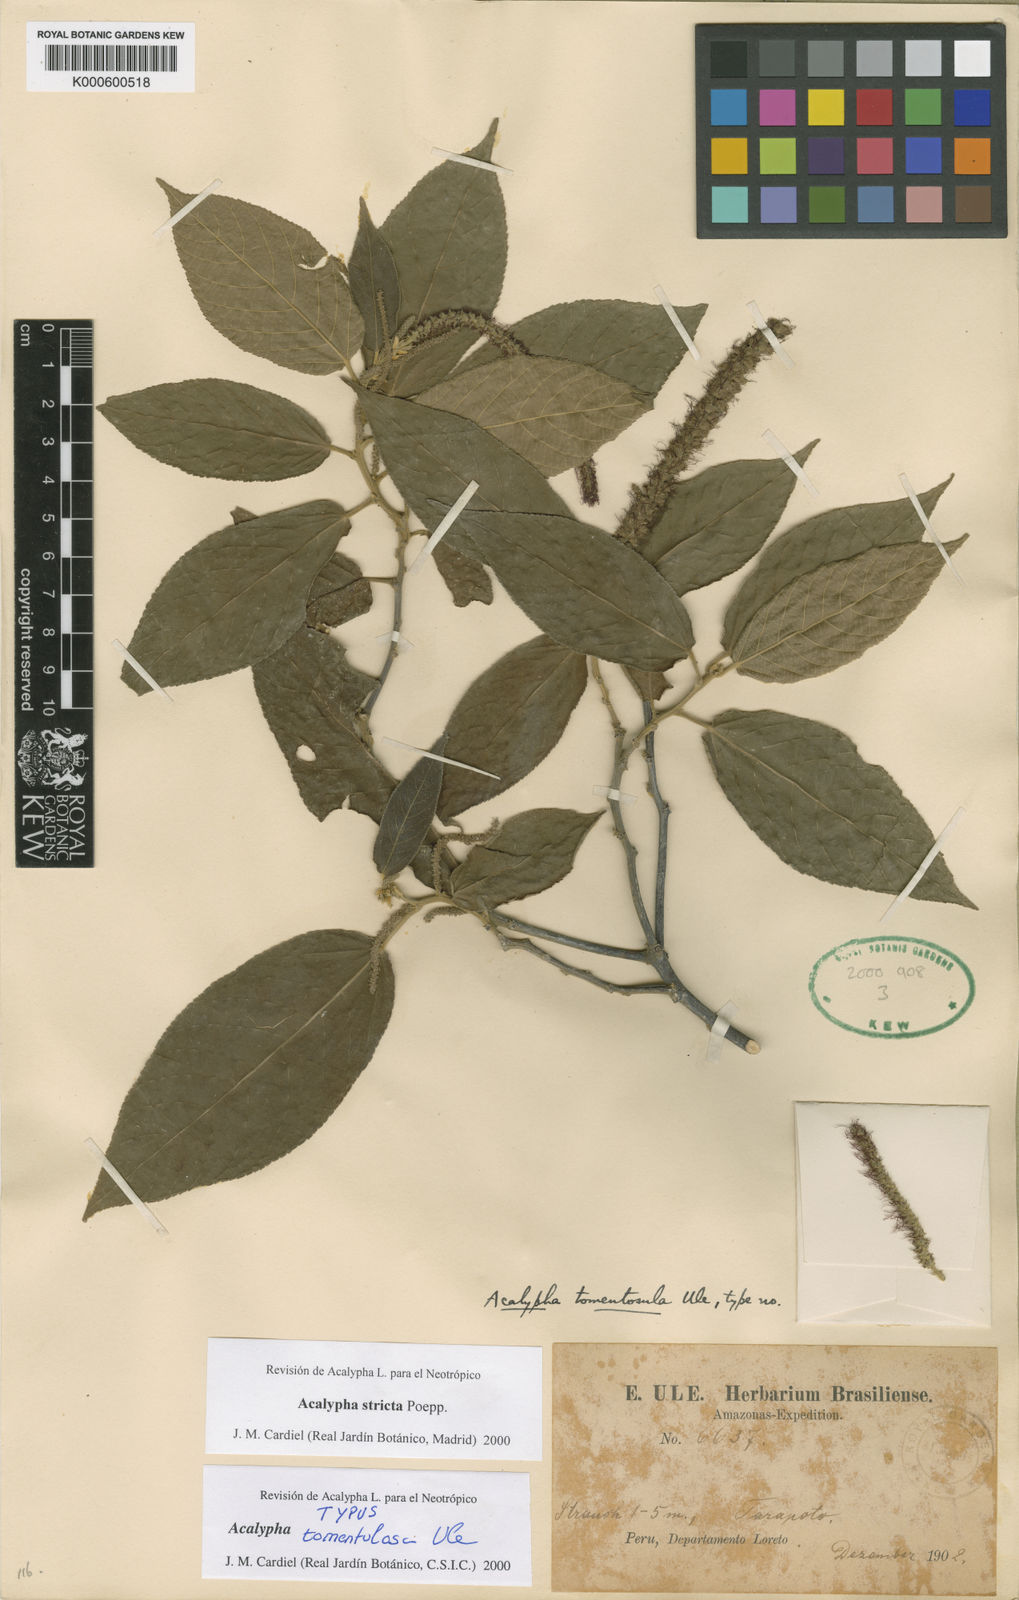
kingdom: Plantae
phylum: Tracheophyta
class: Magnoliopsida
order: Malpighiales
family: Euphorbiaceae
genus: Acalypha
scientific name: Acalypha stricta
